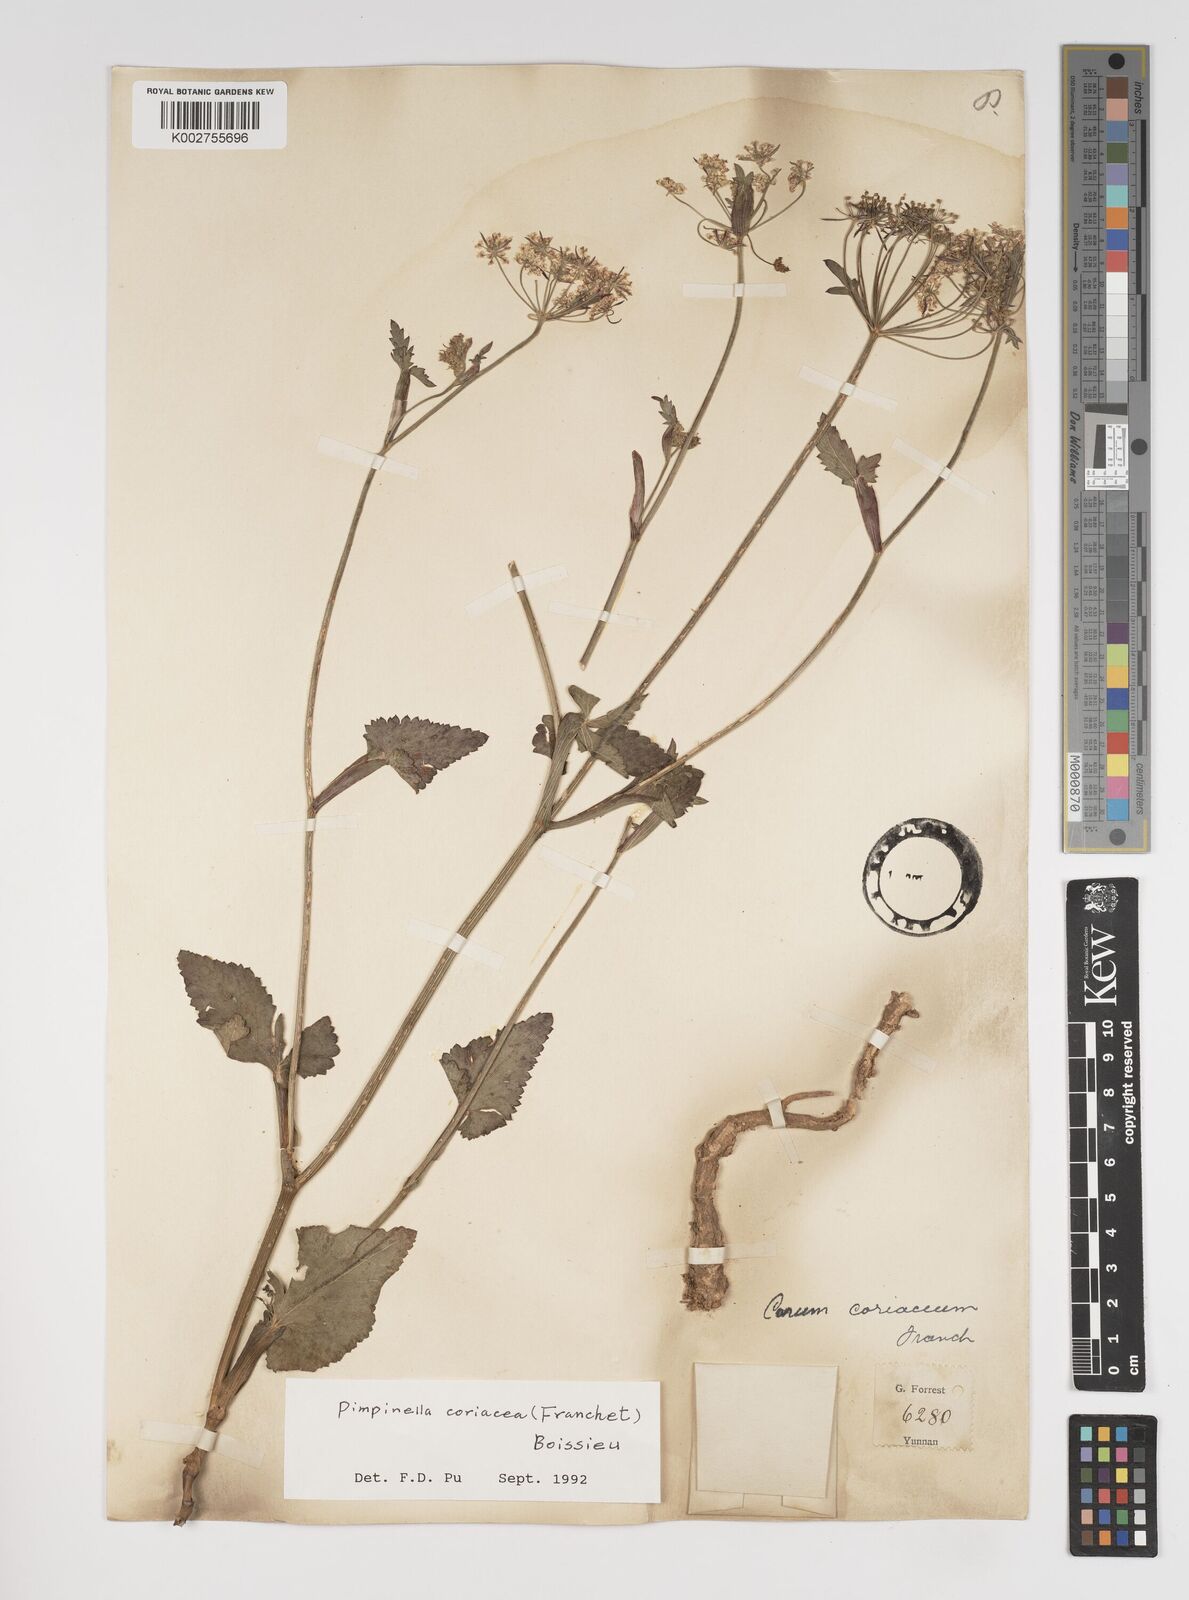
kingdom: Plantae
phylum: Tracheophyta
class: Magnoliopsida
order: Apiales
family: Apiaceae
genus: Pimpinella
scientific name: Pimpinella coriacea
